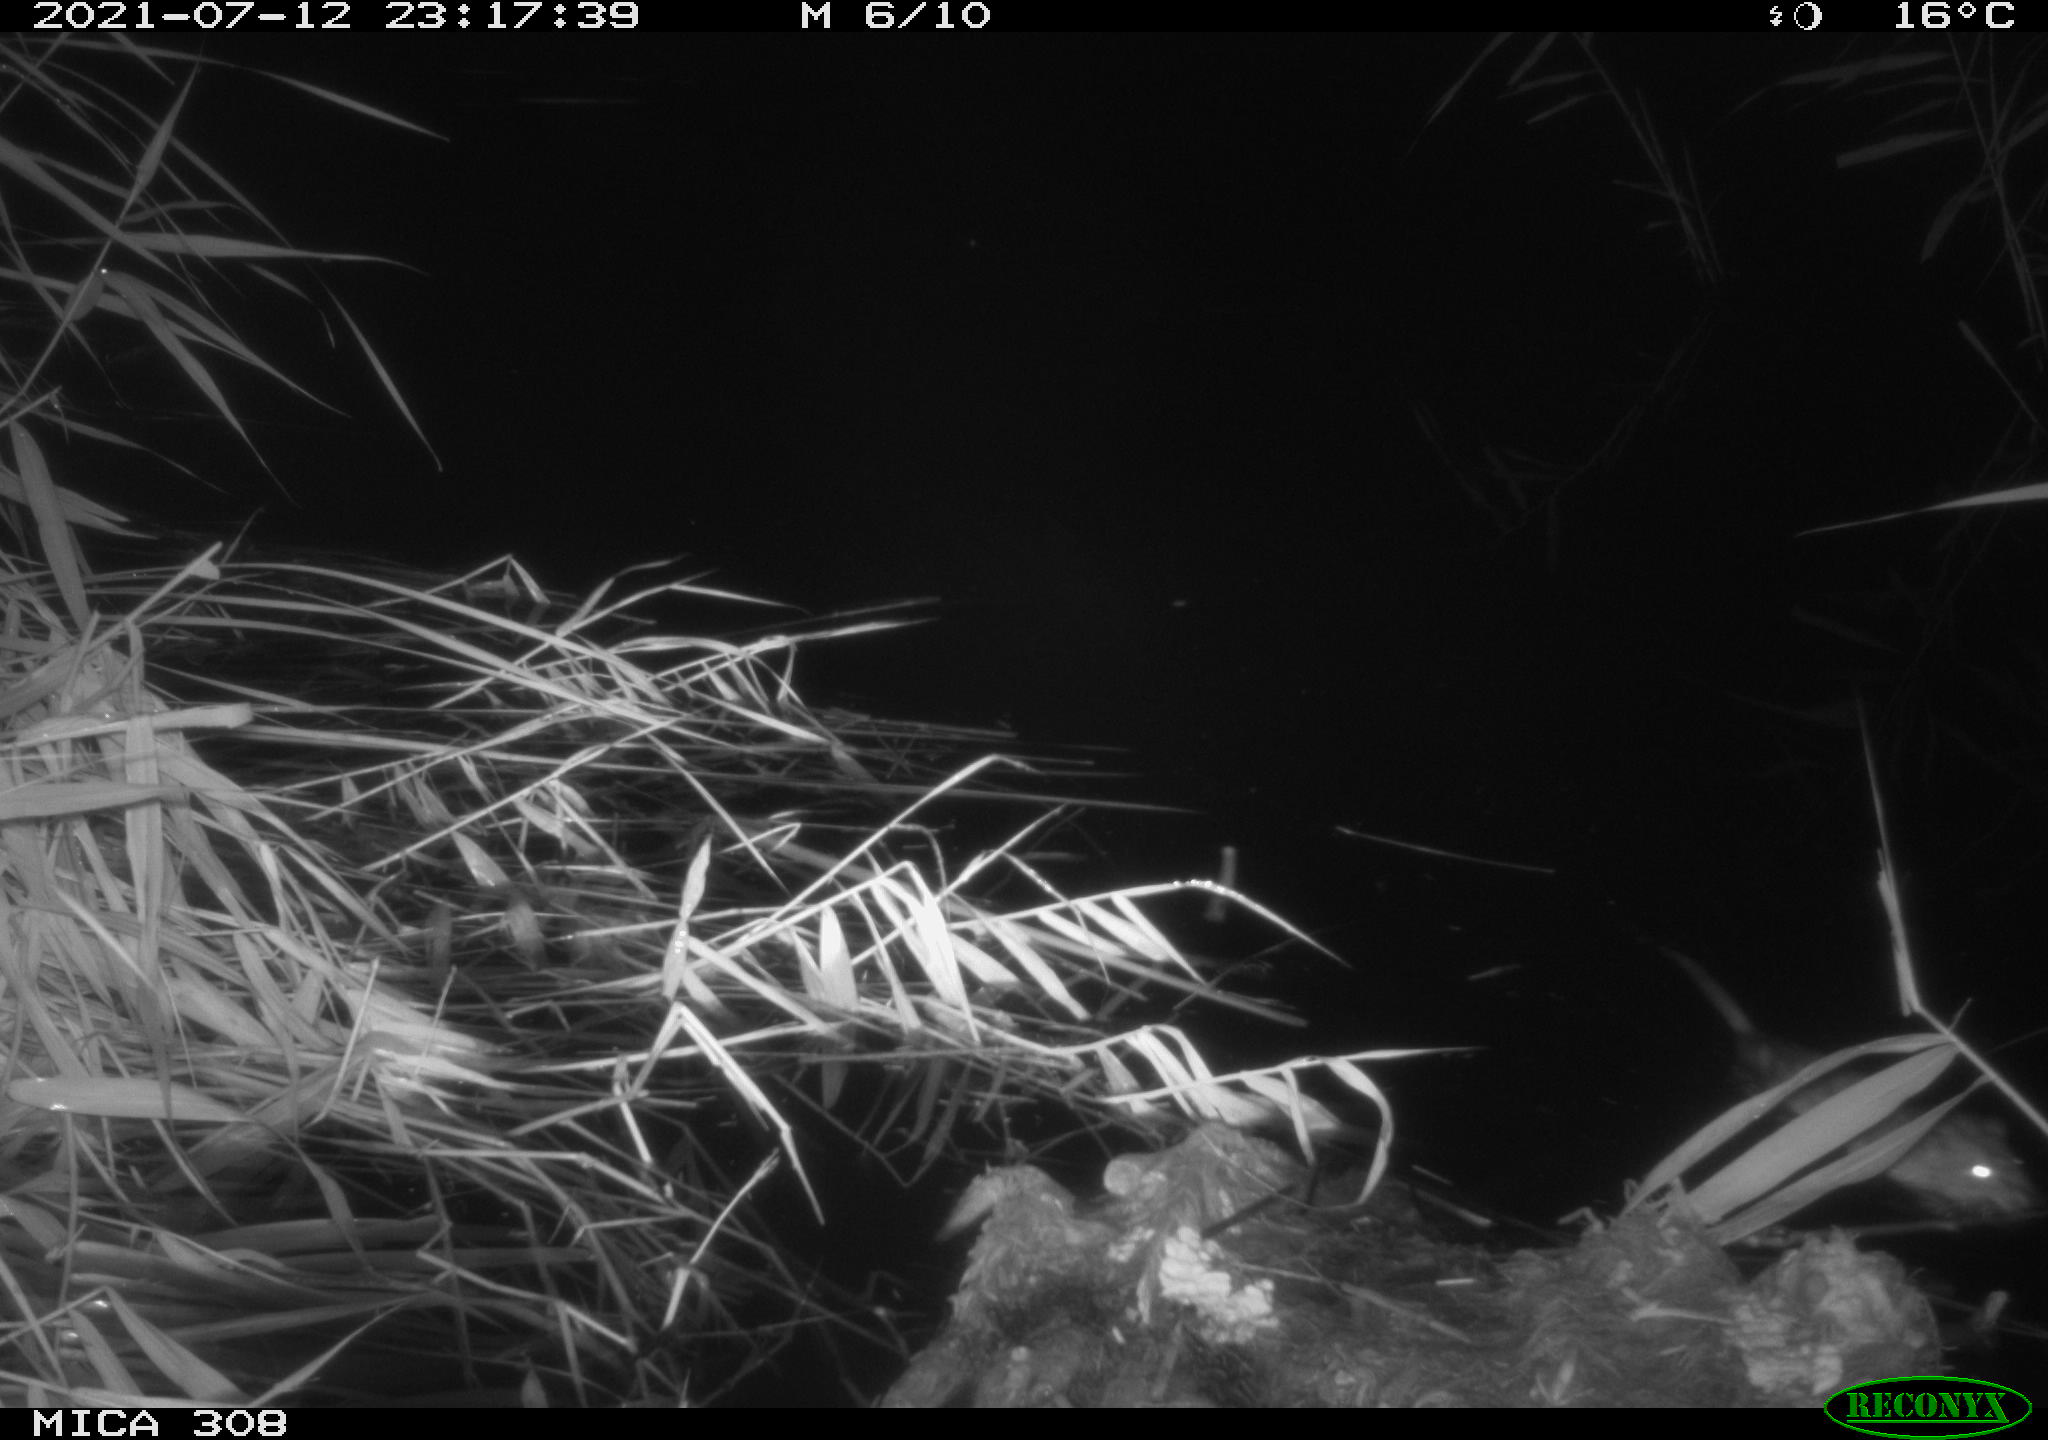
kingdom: Animalia
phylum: Chordata
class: Mammalia
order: Rodentia
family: Cricetidae
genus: Ondatra
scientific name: Ondatra zibethicus
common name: Muskrat
